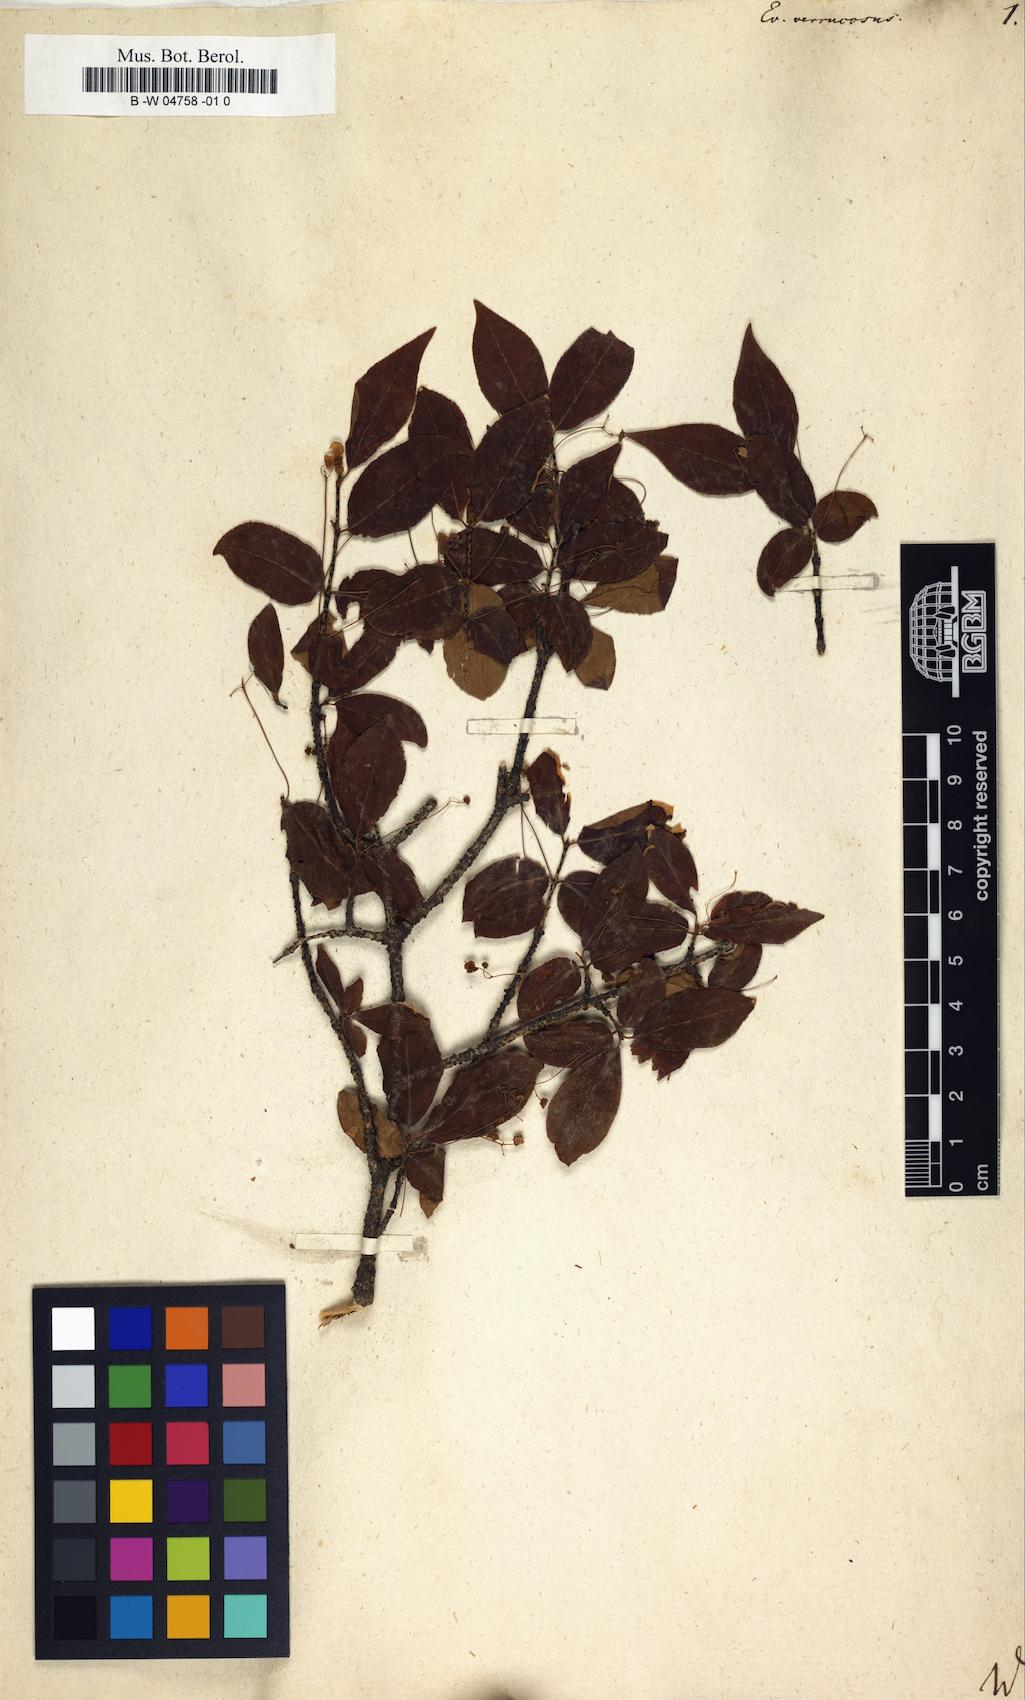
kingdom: Plantae
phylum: Tracheophyta
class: Magnoliopsida
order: Celastrales
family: Celastraceae
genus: Euonymus
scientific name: Euonymus verrucosus
